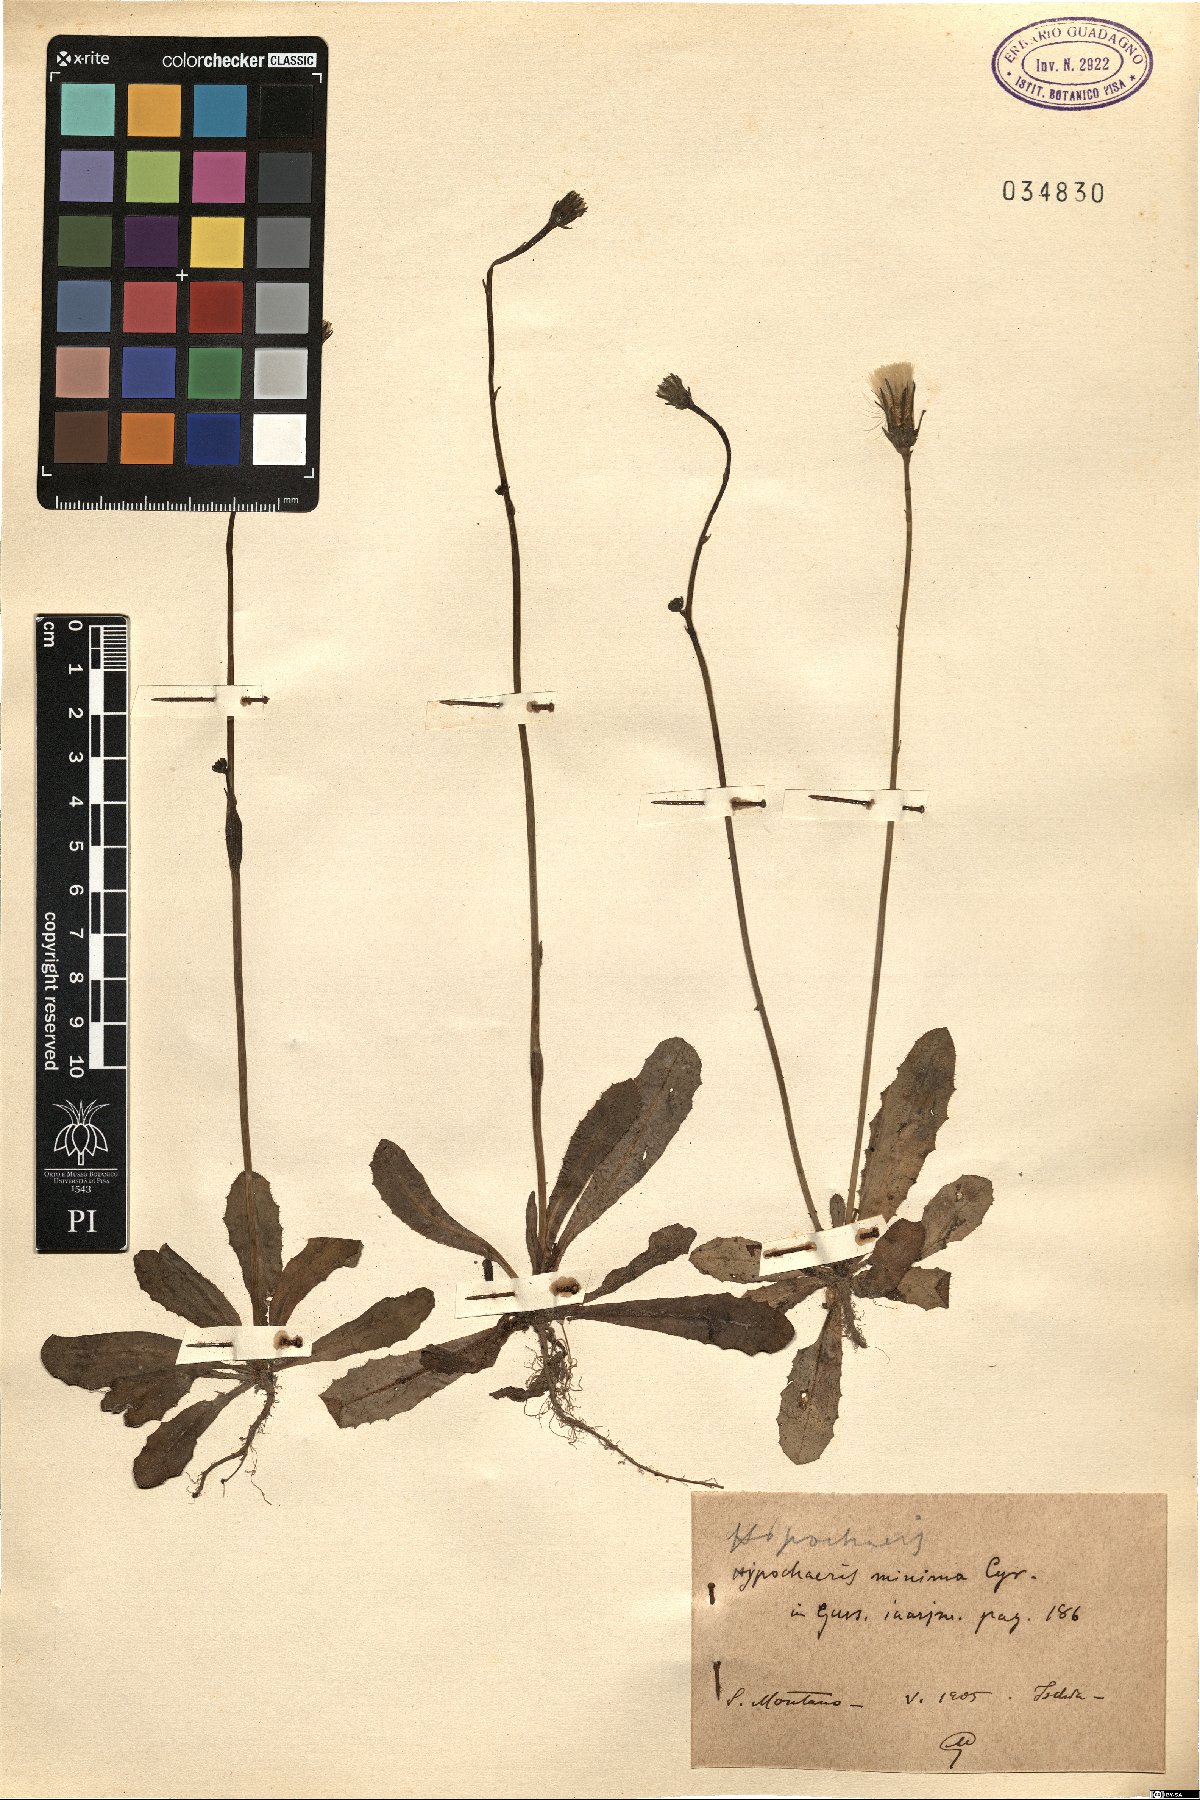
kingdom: Plantae
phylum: Tracheophyta
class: Magnoliopsida
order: Asterales
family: Asteraceae
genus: Hypochaeris
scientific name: Hypochaeris arachnoides
